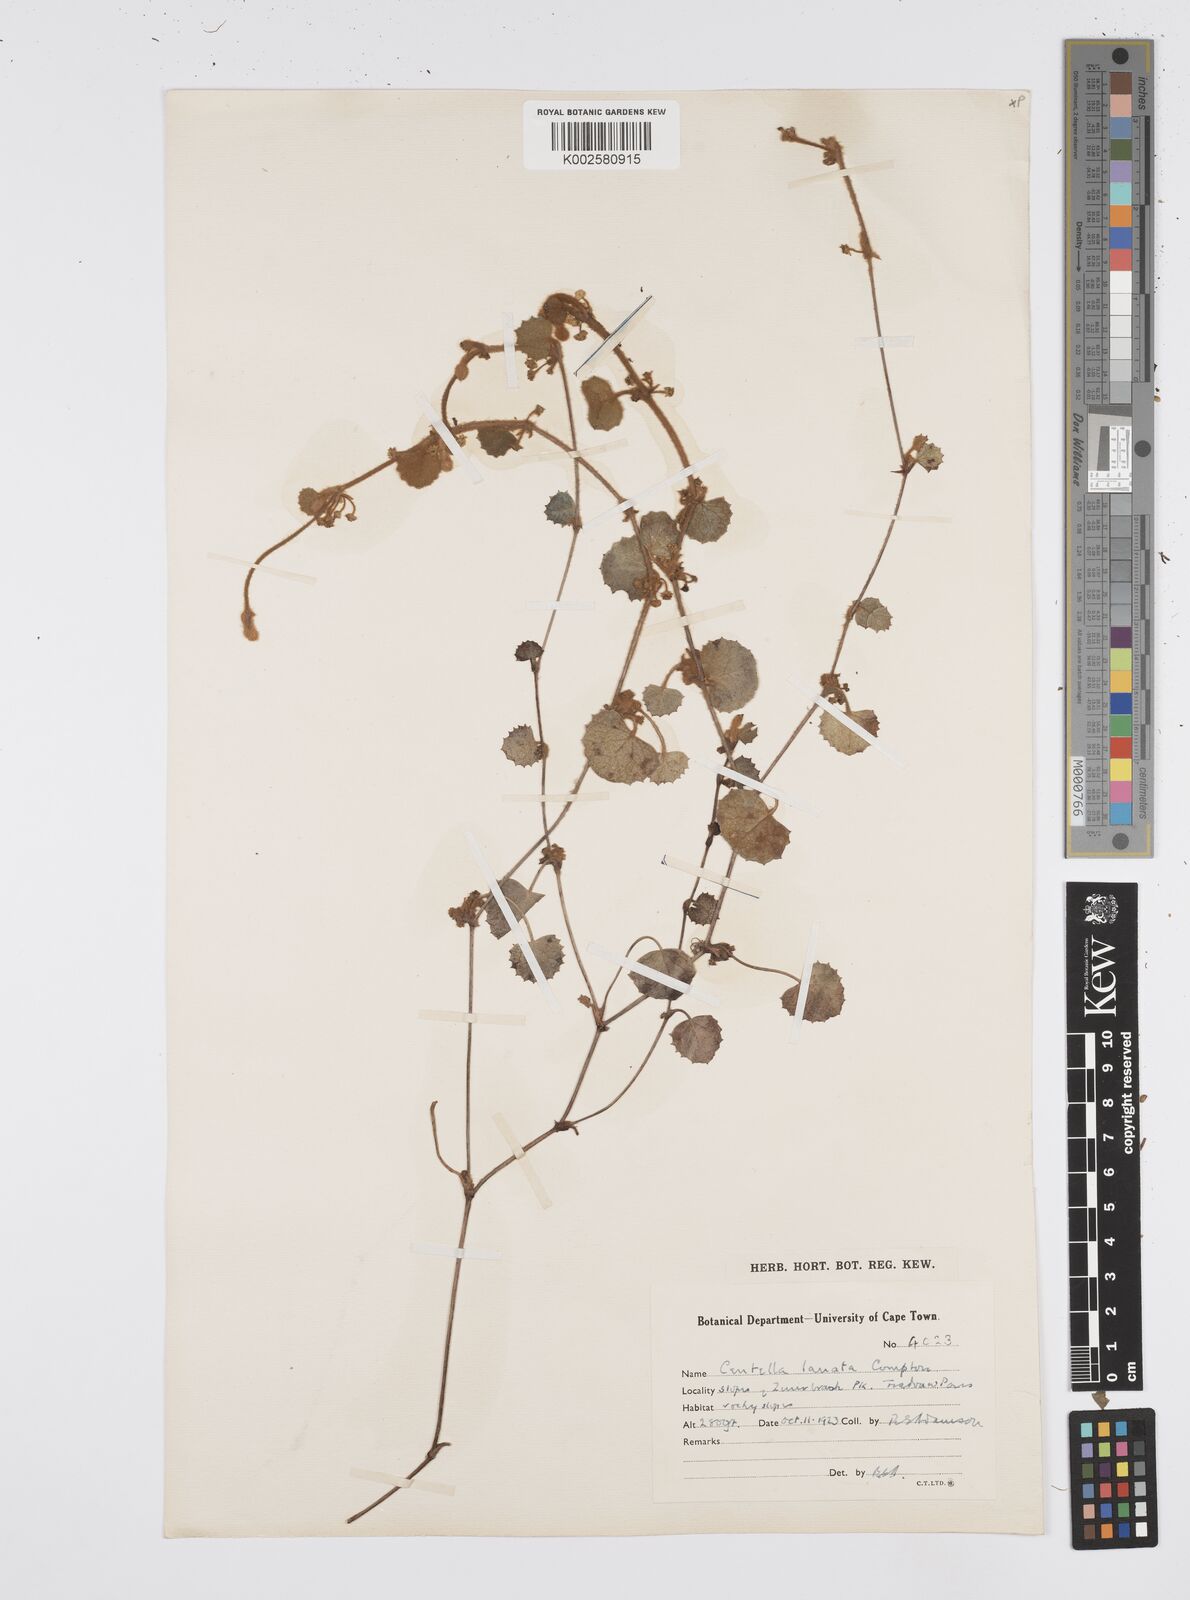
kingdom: Plantae
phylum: Tracheophyta
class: Magnoliopsida
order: Apiales
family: Apiaceae
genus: Centella
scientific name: Centella lanata
